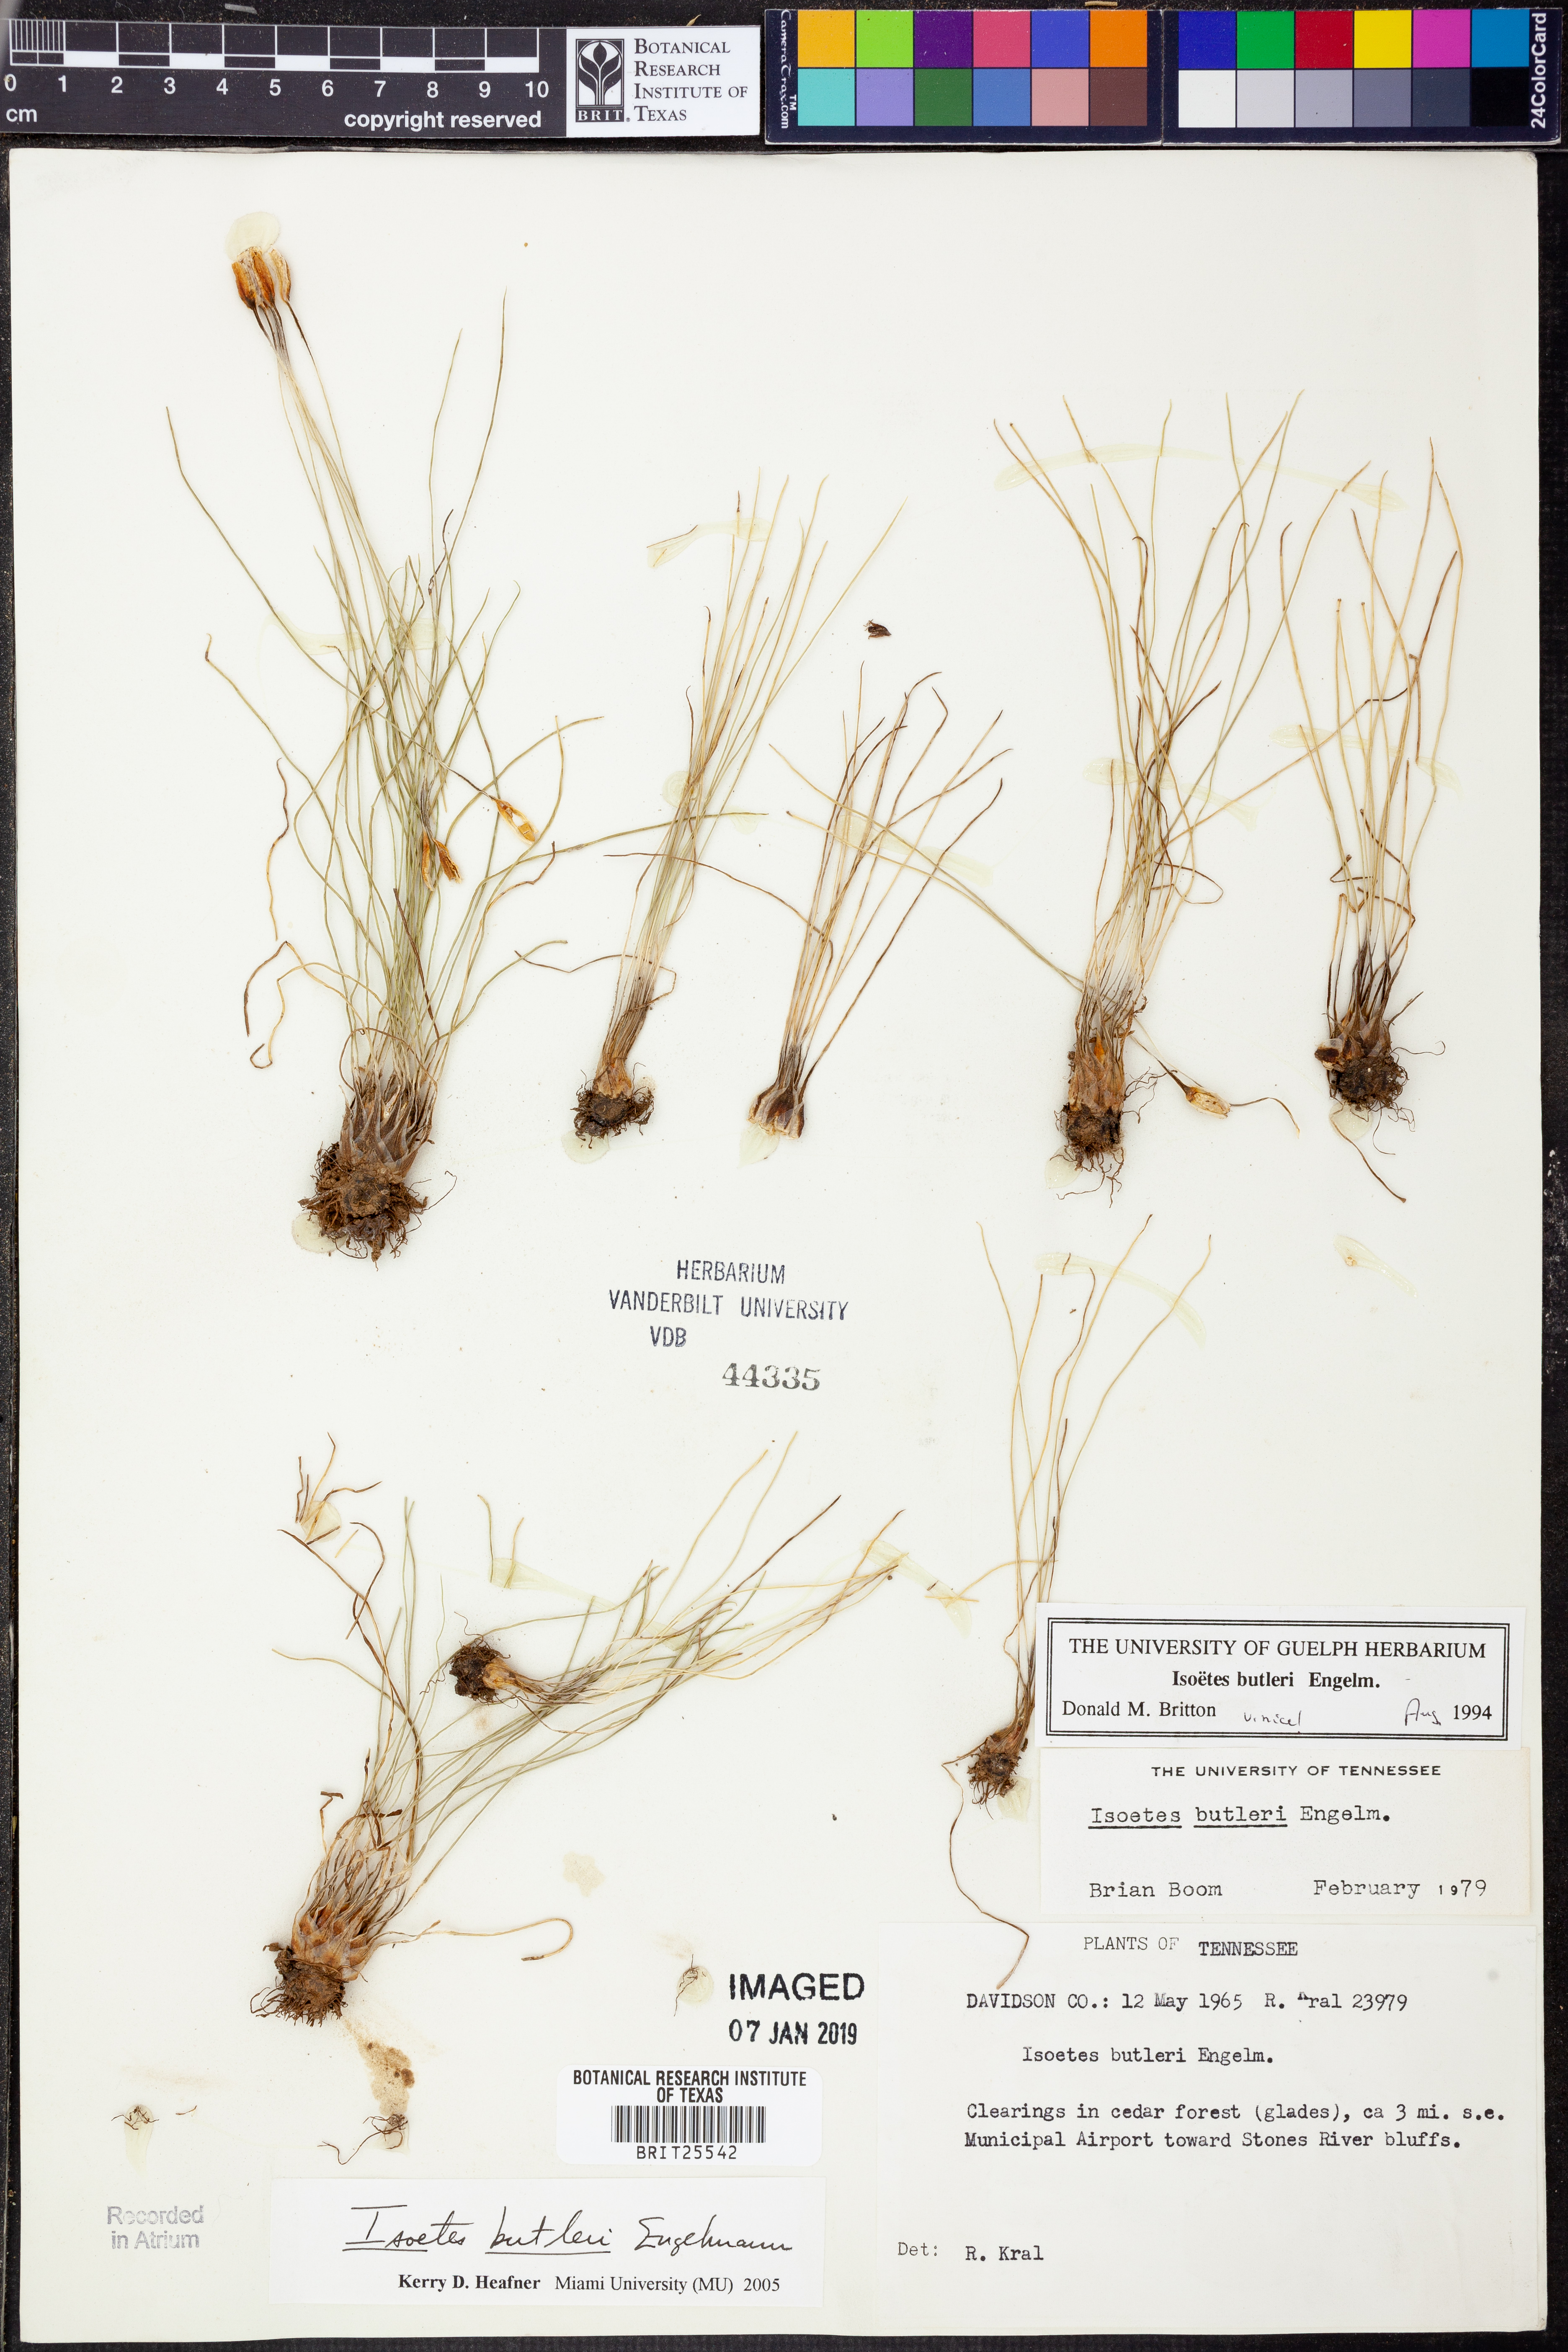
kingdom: Plantae
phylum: Tracheophyta
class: Lycopodiopsida
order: Isoetales
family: Isoetaceae
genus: Isoetes
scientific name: Isoetes butleri
